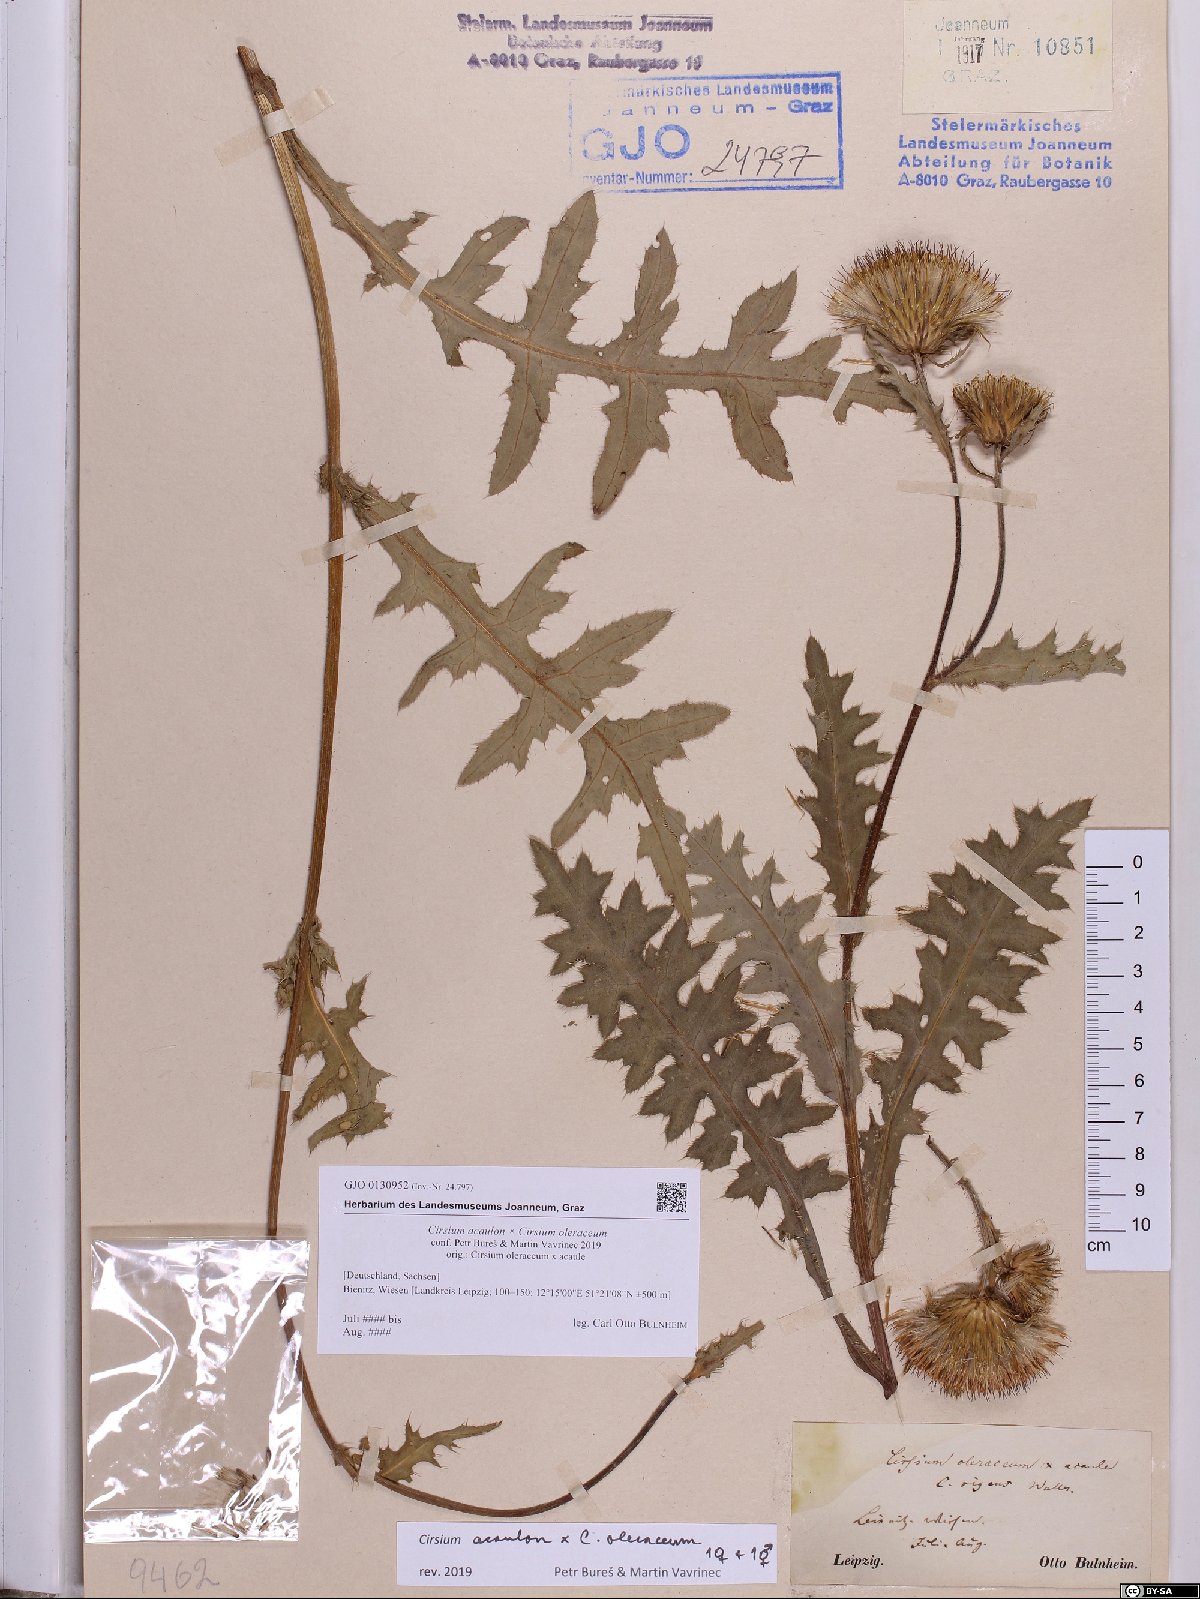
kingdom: Plantae
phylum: Tracheophyta
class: Magnoliopsida
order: Asterales
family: Asteraceae
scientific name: Asteraceae
